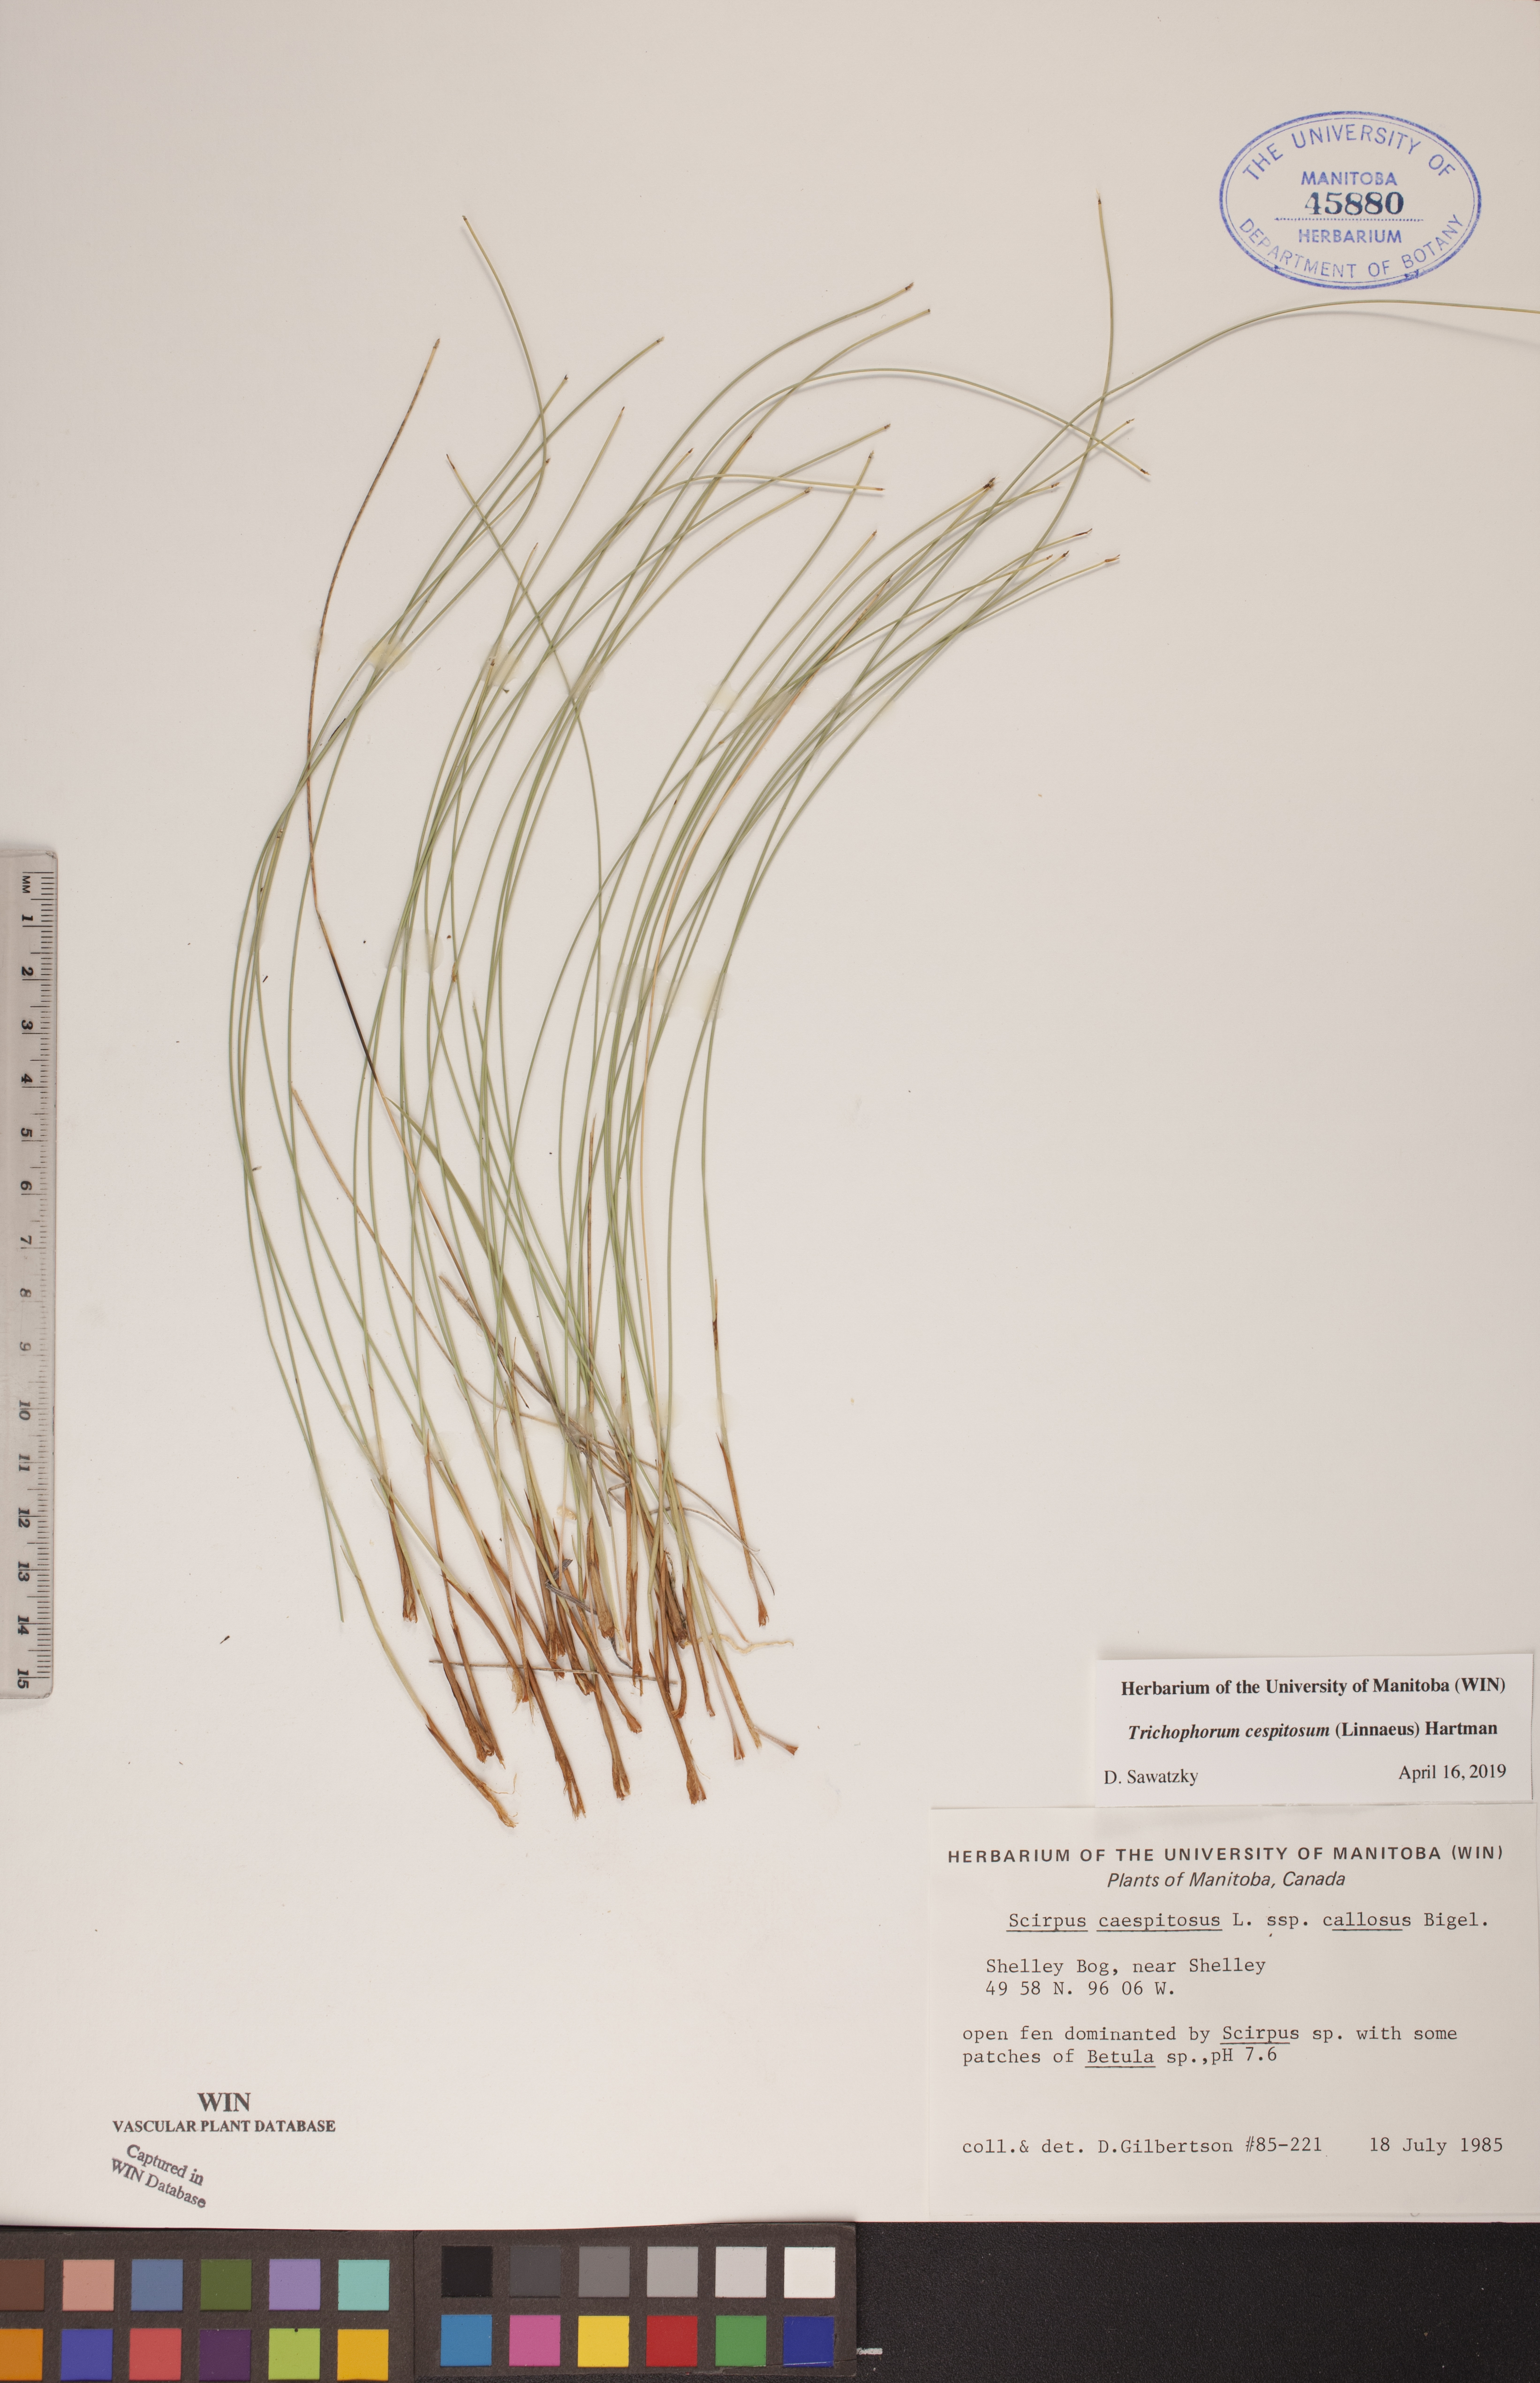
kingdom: Plantae
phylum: Tracheophyta
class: Liliopsida
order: Poales
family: Cyperaceae
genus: Trichophorum
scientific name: Trichophorum cespitosum
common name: Cespitose bulrush
